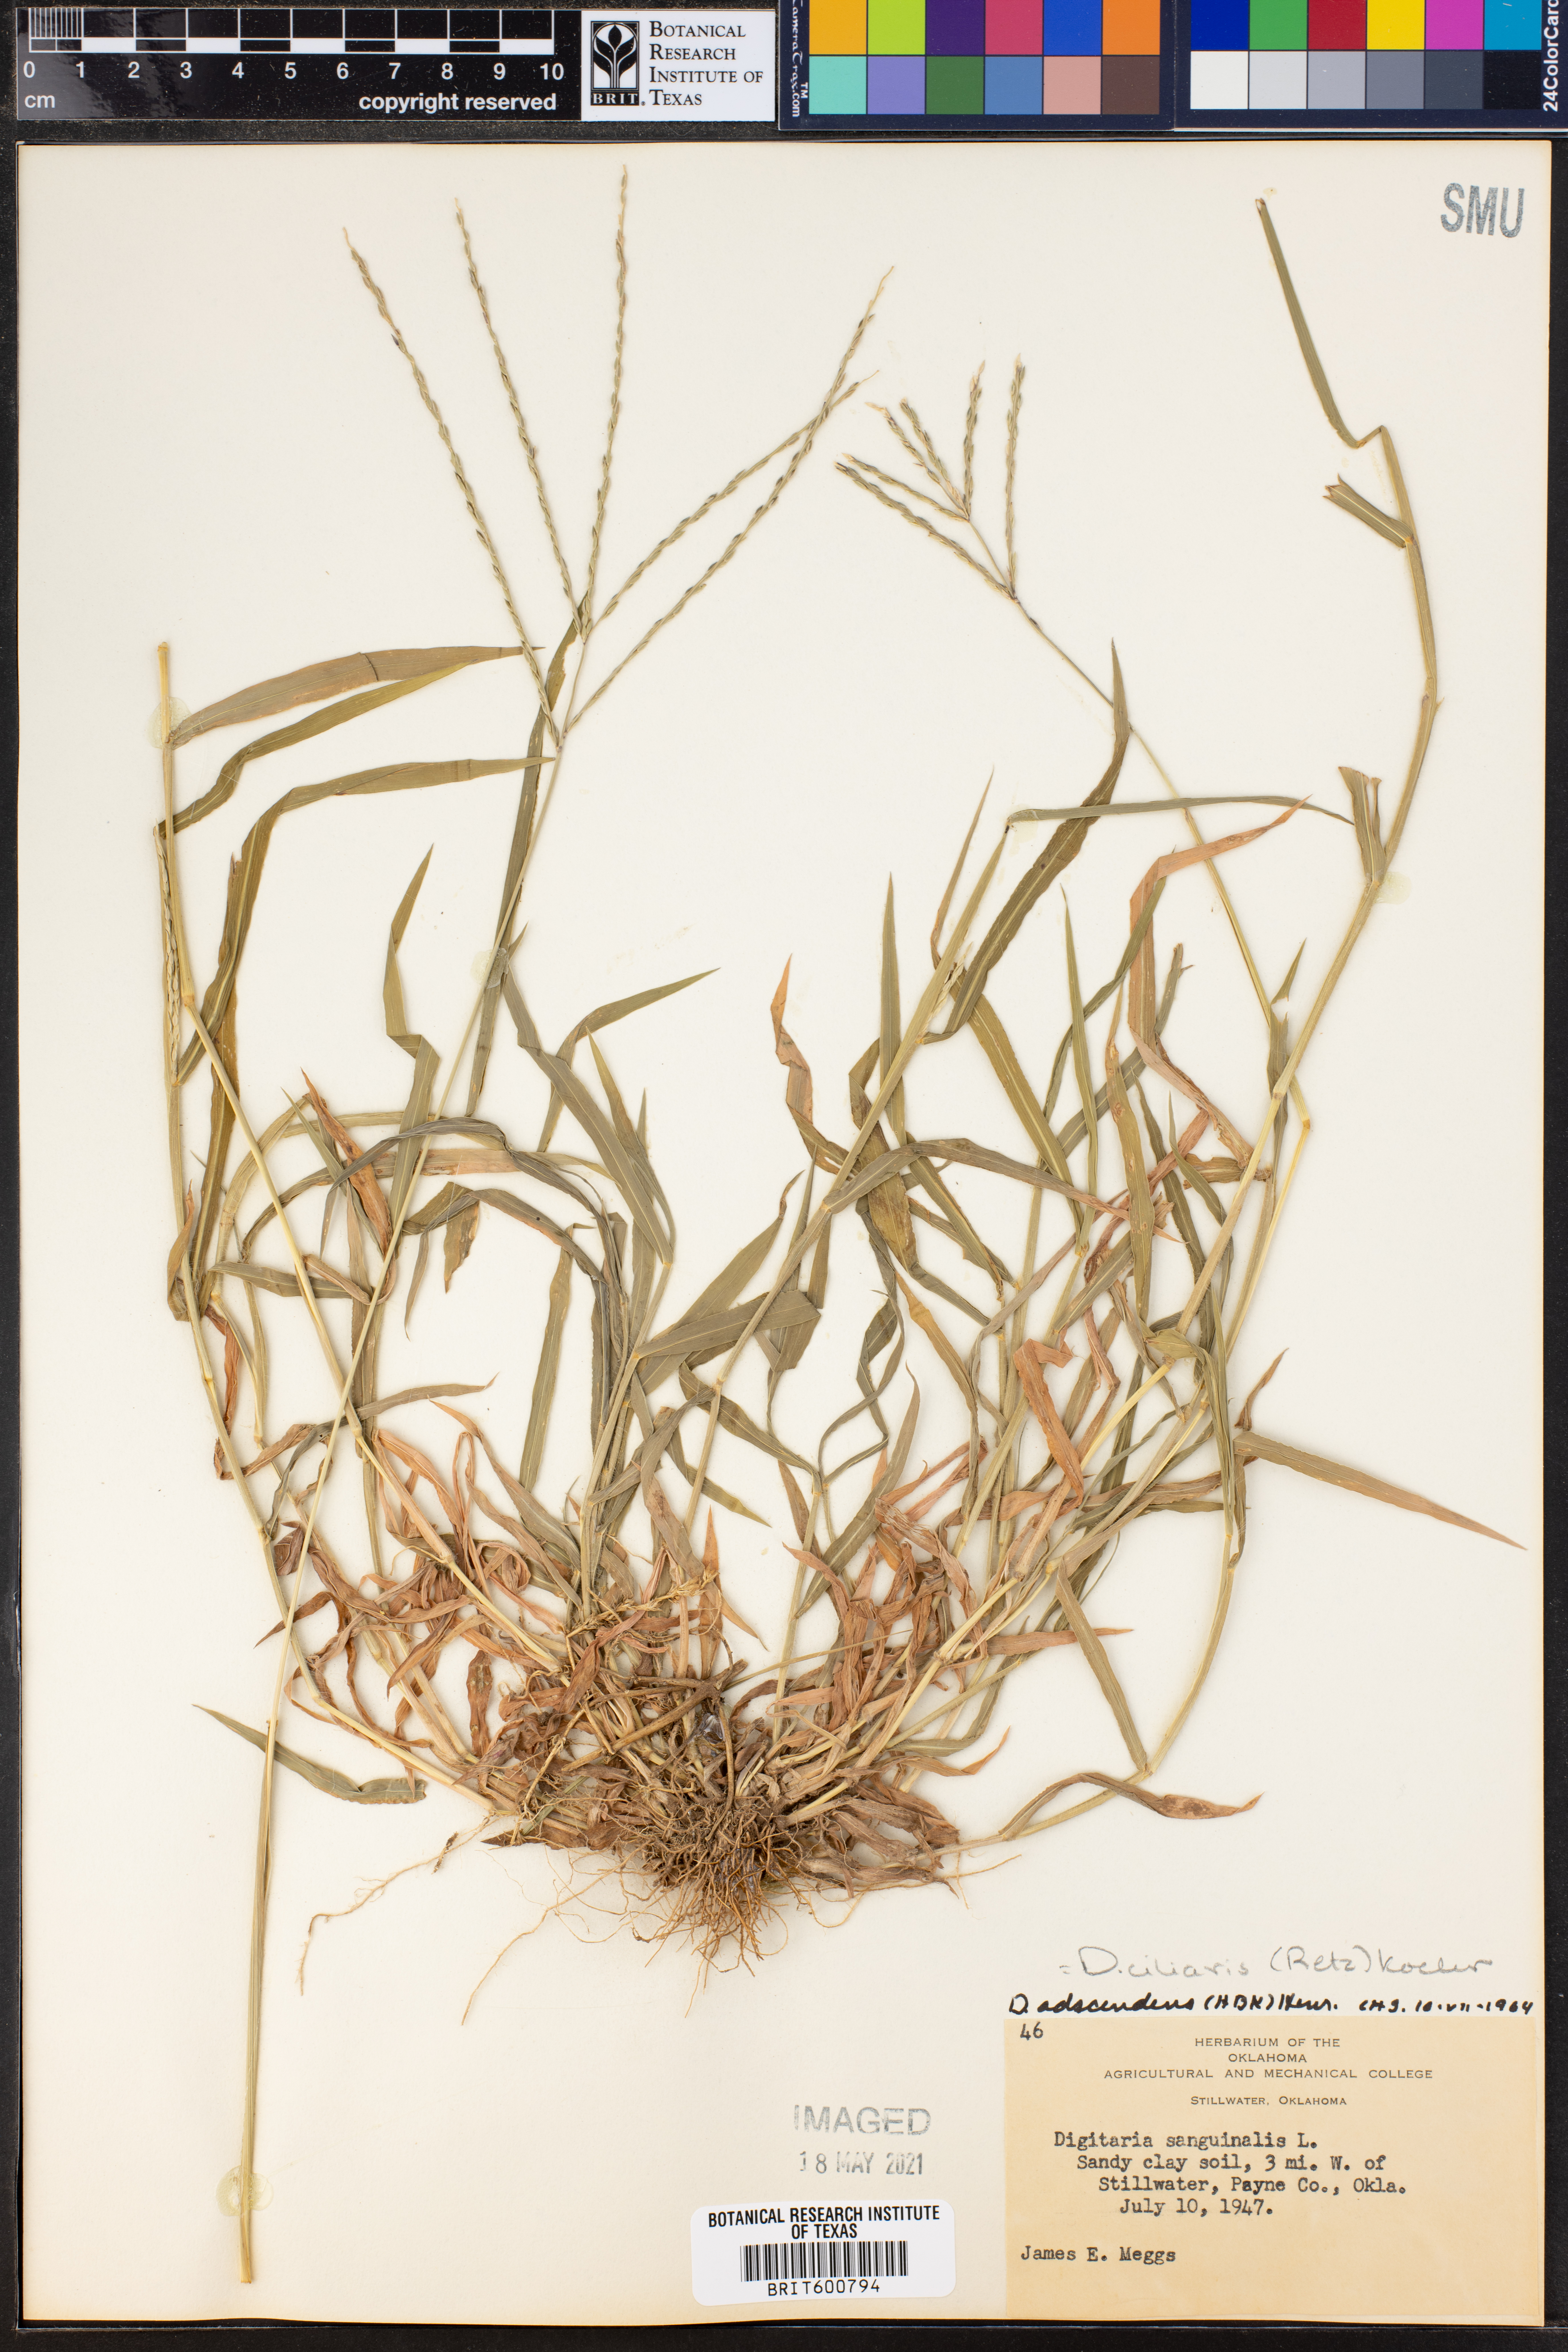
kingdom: Plantae
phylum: Tracheophyta
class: Liliopsida
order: Poales
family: Poaceae
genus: Digitaria
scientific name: Digitaria ciliaris
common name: Tropical finger-grass
